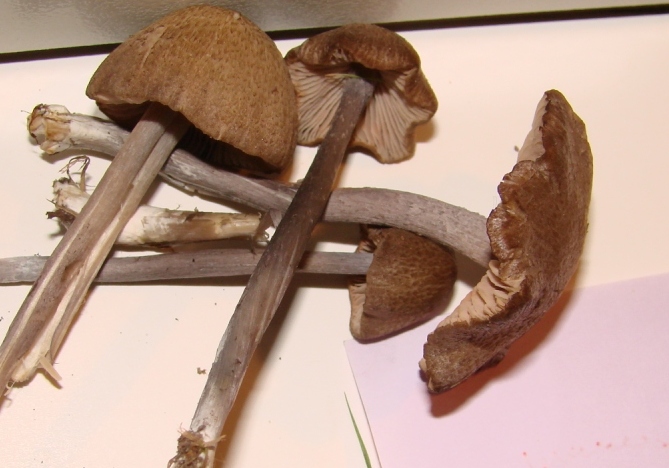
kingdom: Fungi
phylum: Basidiomycota
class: Agaricomycetes
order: Agaricales
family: Entolomataceae
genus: Entoloma
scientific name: Entoloma griseocyaneum
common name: gråblå rødblad
